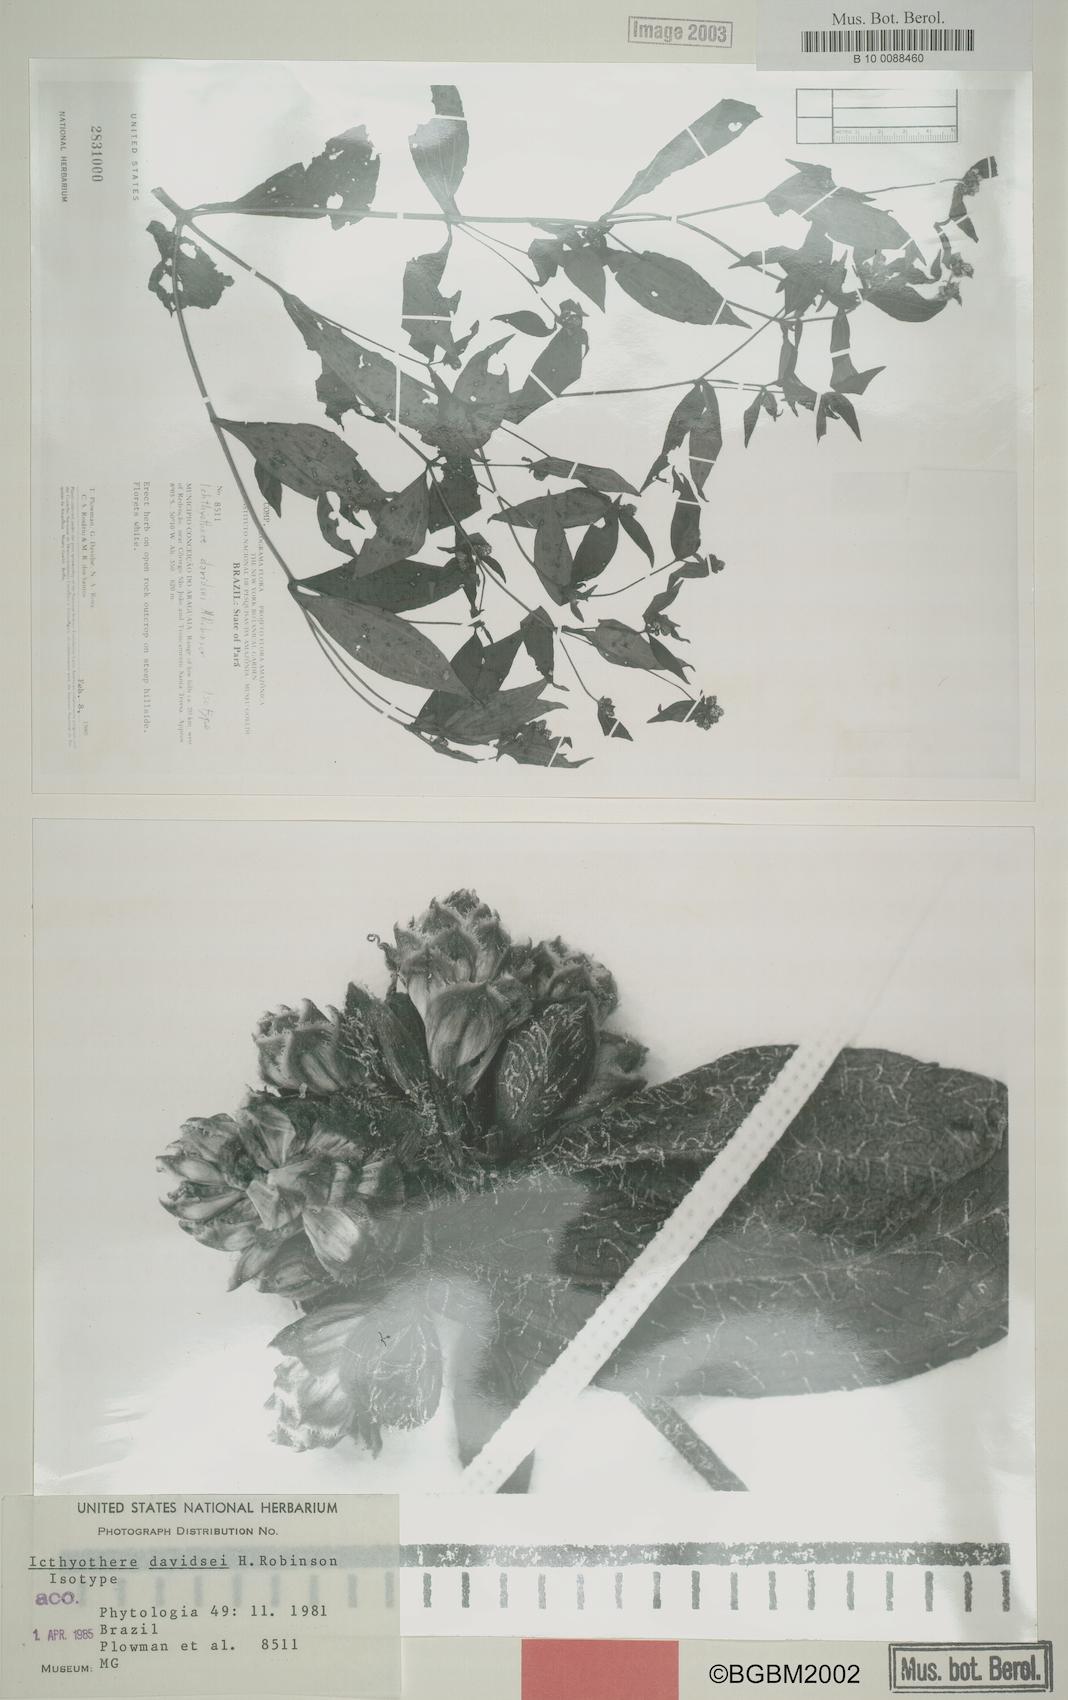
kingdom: Plantae
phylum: Tracheophyta
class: Magnoliopsida
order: Asterales
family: Asteraceae
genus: Icthyothere
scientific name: Icthyothere
